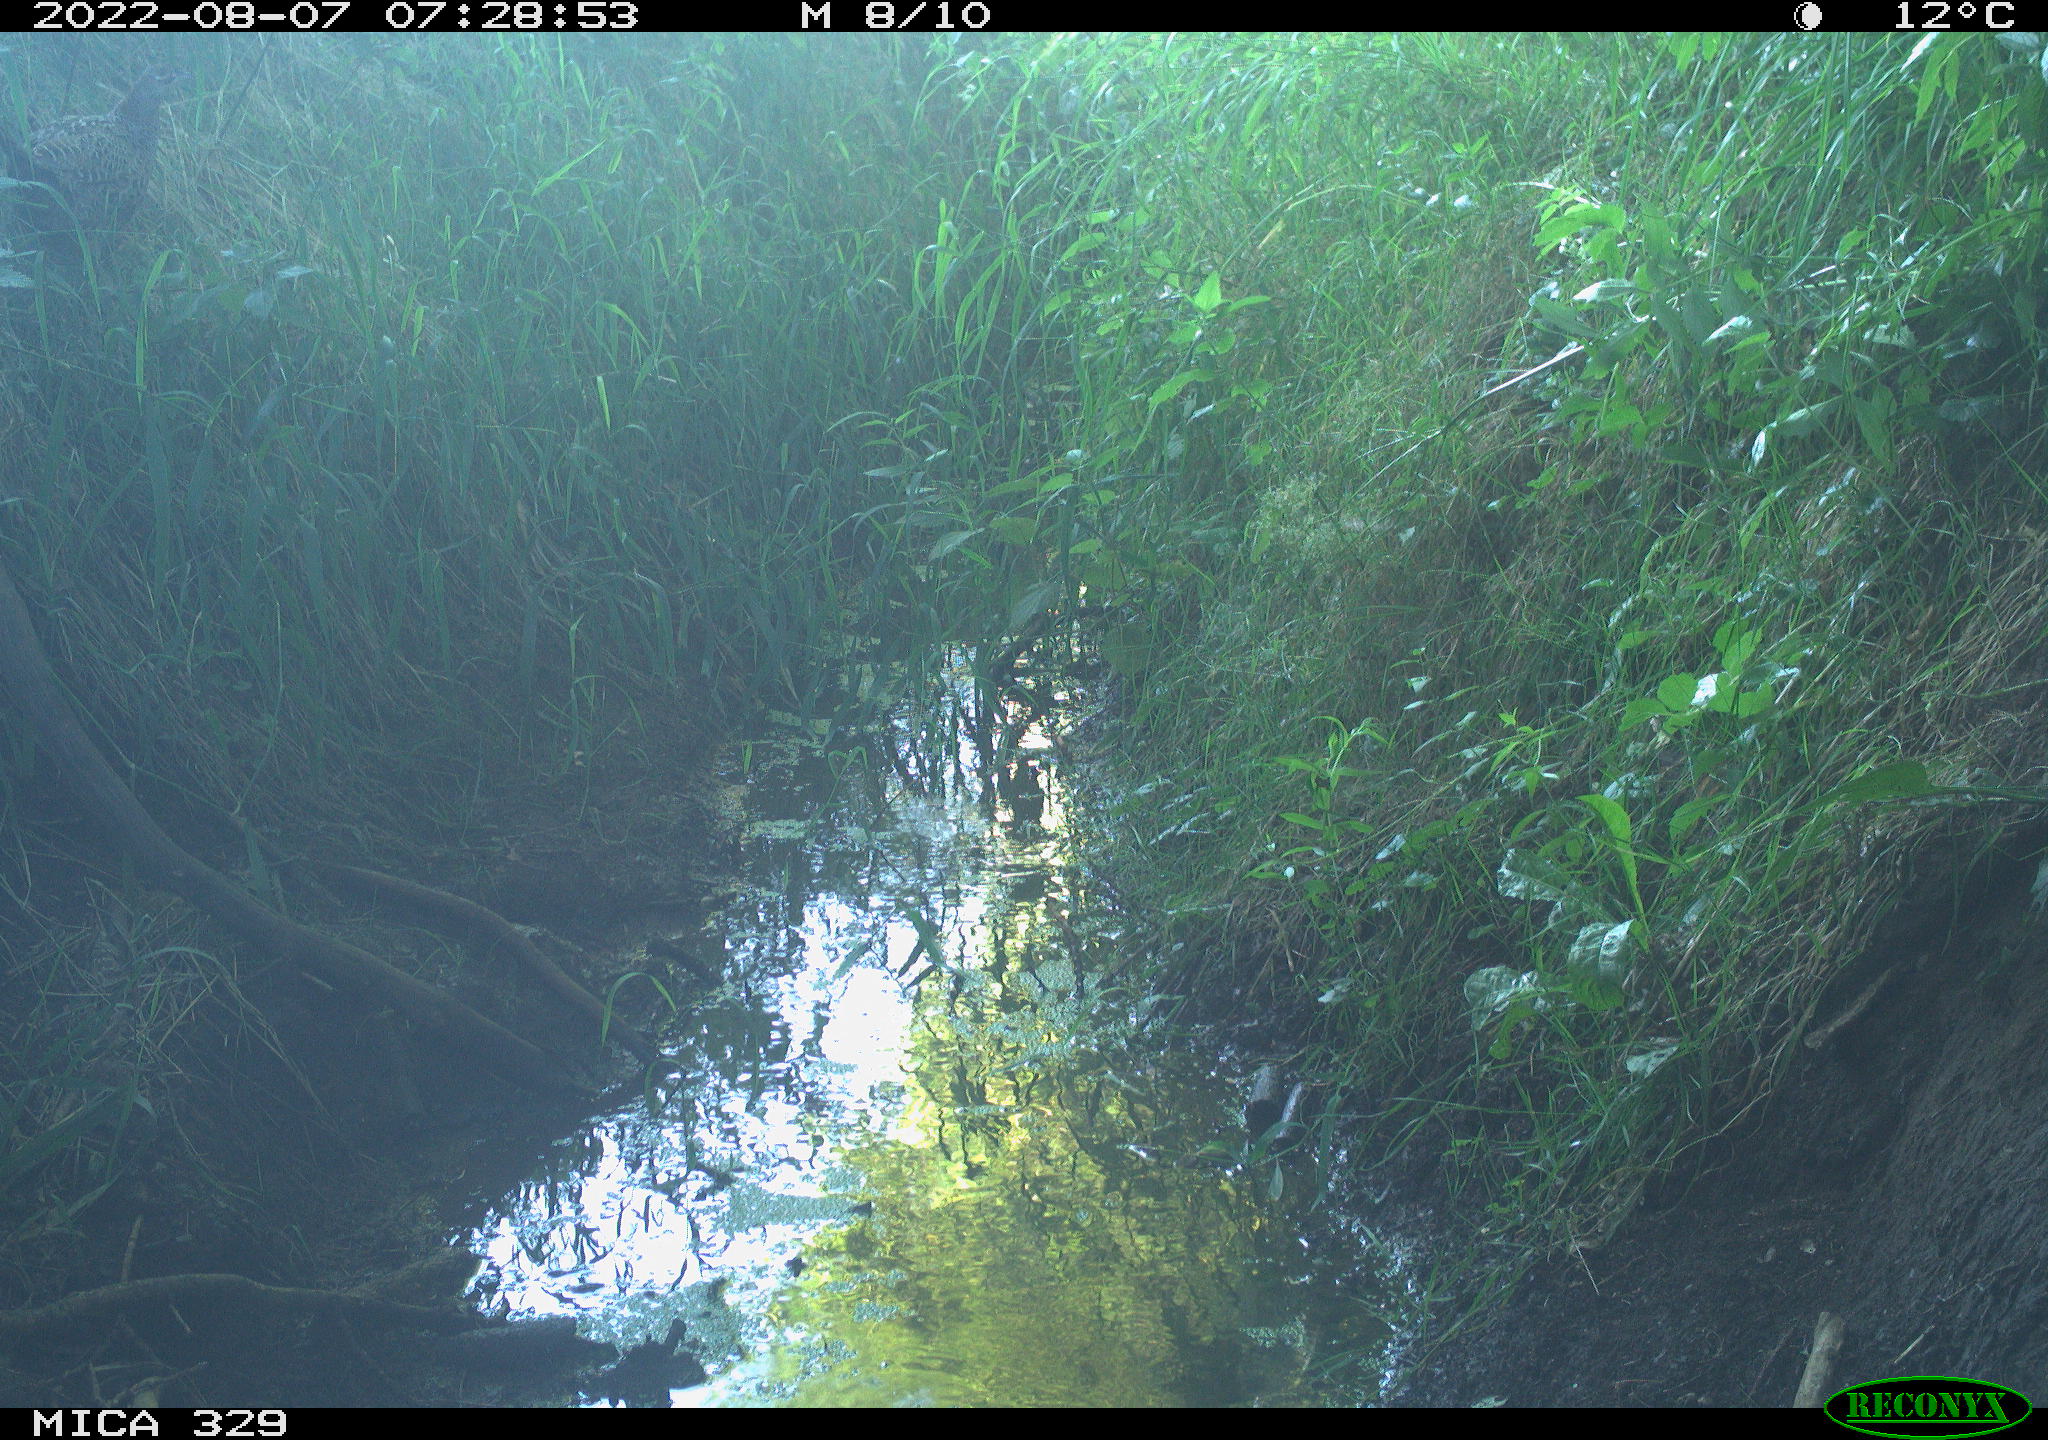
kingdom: Animalia
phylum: Chordata
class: Aves
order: Galliformes
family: Phasianidae
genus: Phasianus
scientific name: Phasianus colchicus
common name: Common pheasant
